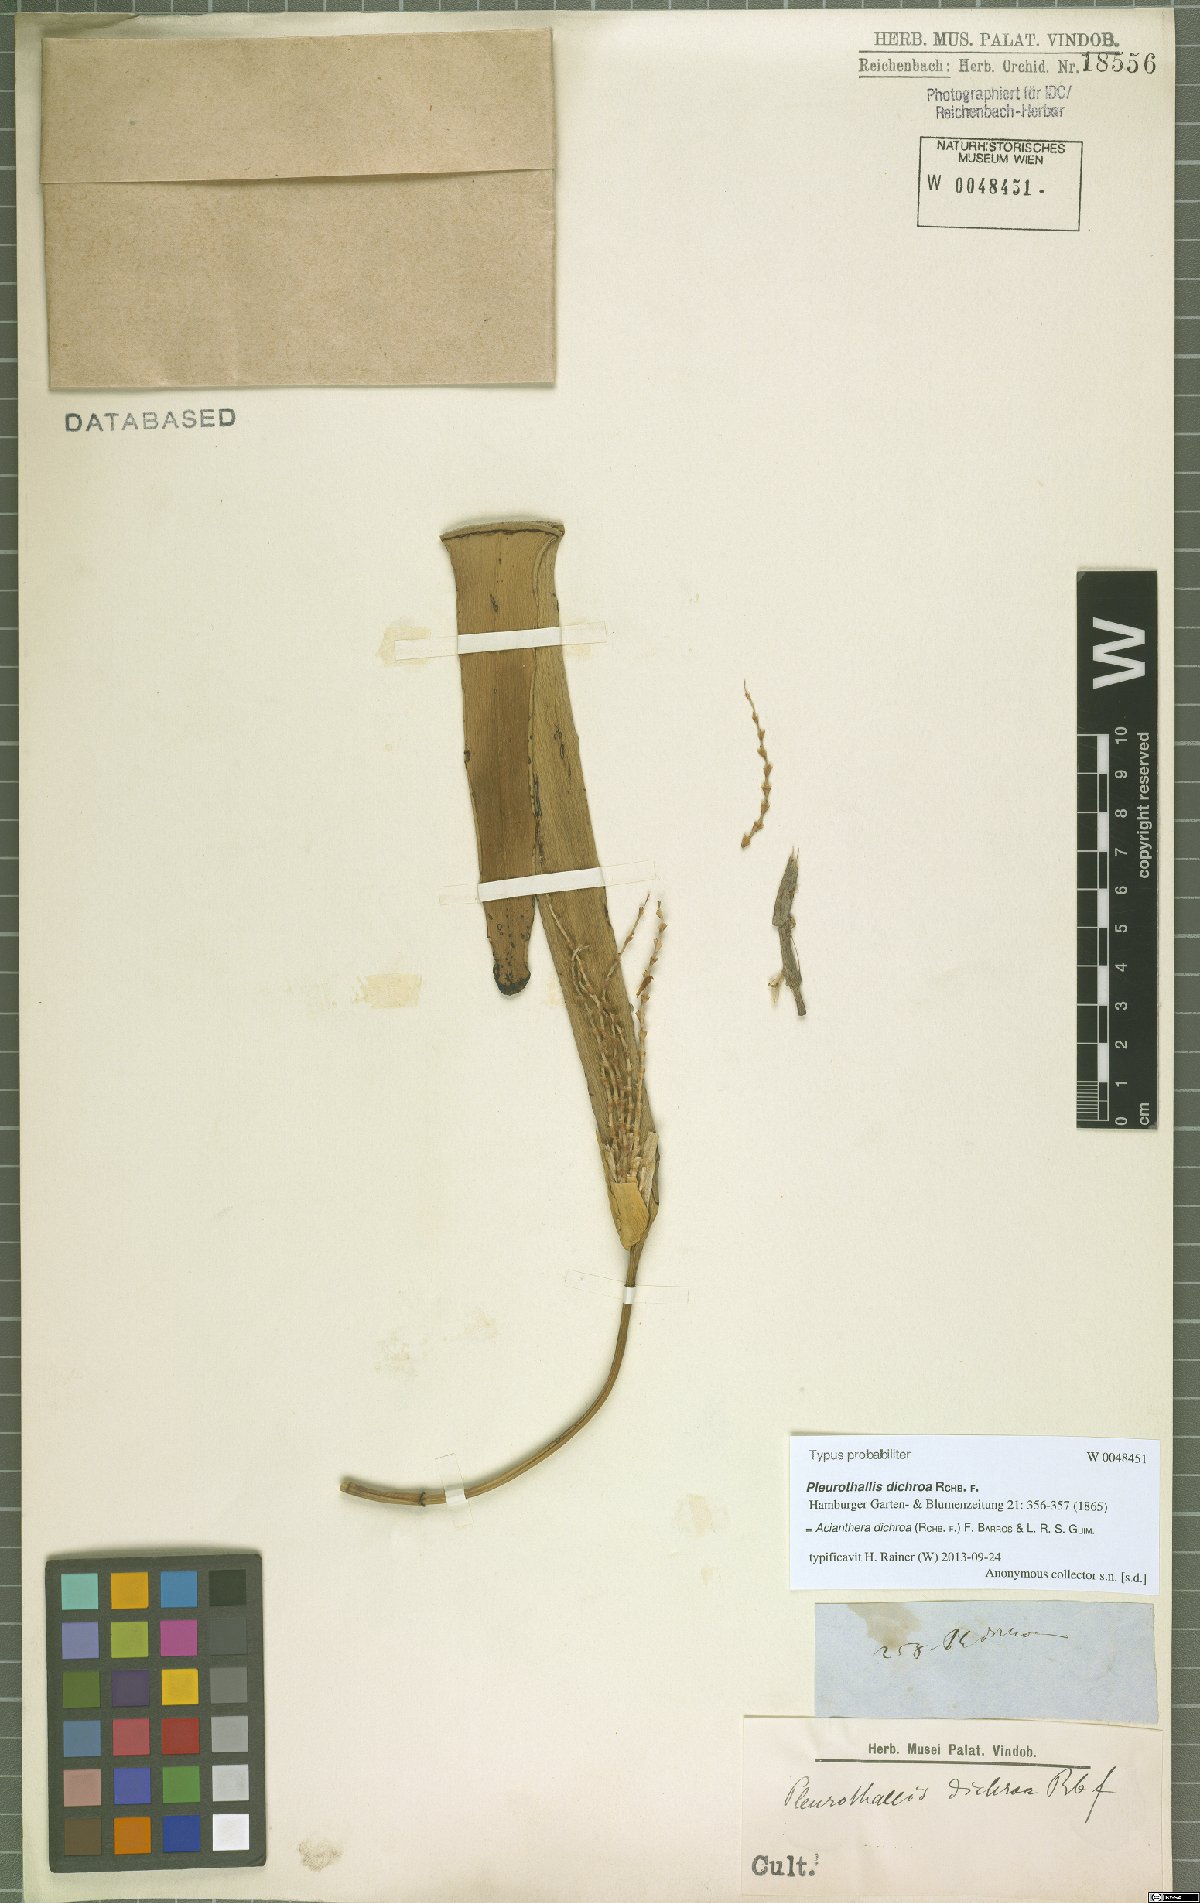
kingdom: Plantae
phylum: Tracheophyta
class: Liliopsida
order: Asparagales
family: Orchidaceae
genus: Acianthera
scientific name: Acianthera dichroa
